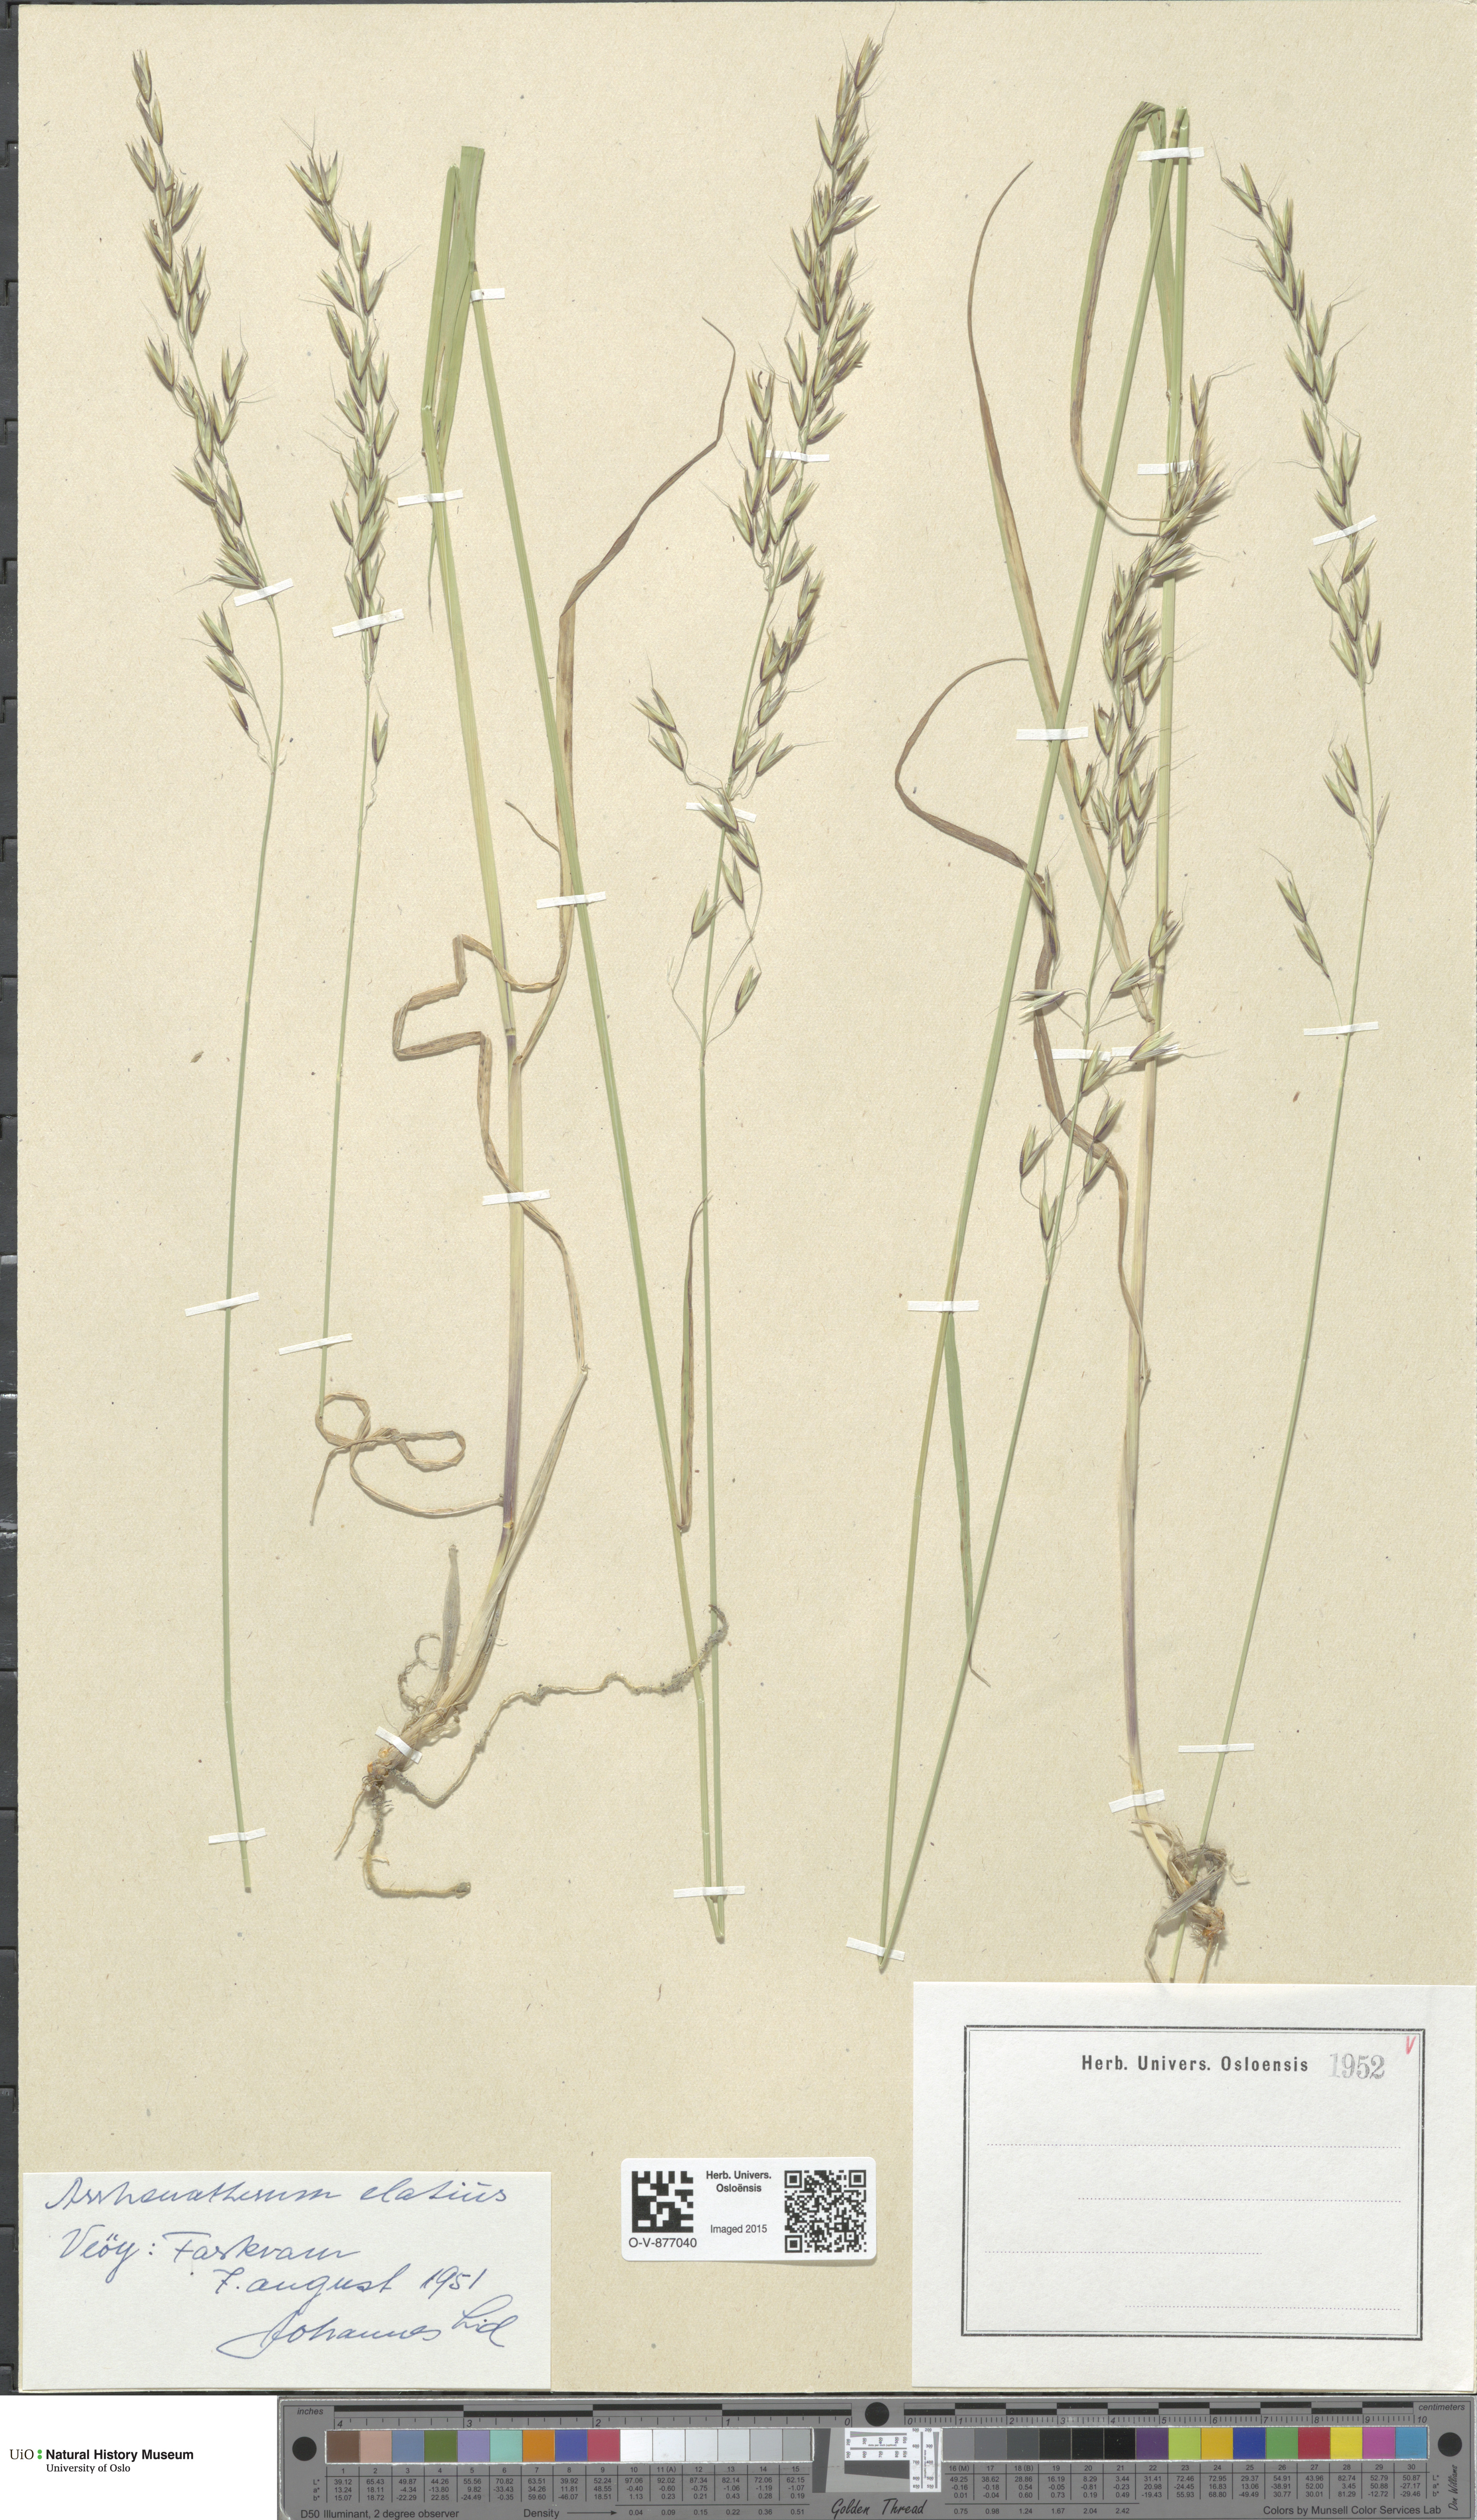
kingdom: Plantae
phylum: Tracheophyta
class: Liliopsida
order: Poales
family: Poaceae
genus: Arrhenatherum
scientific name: Arrhenatherum elatius
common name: Tall oatgrass
